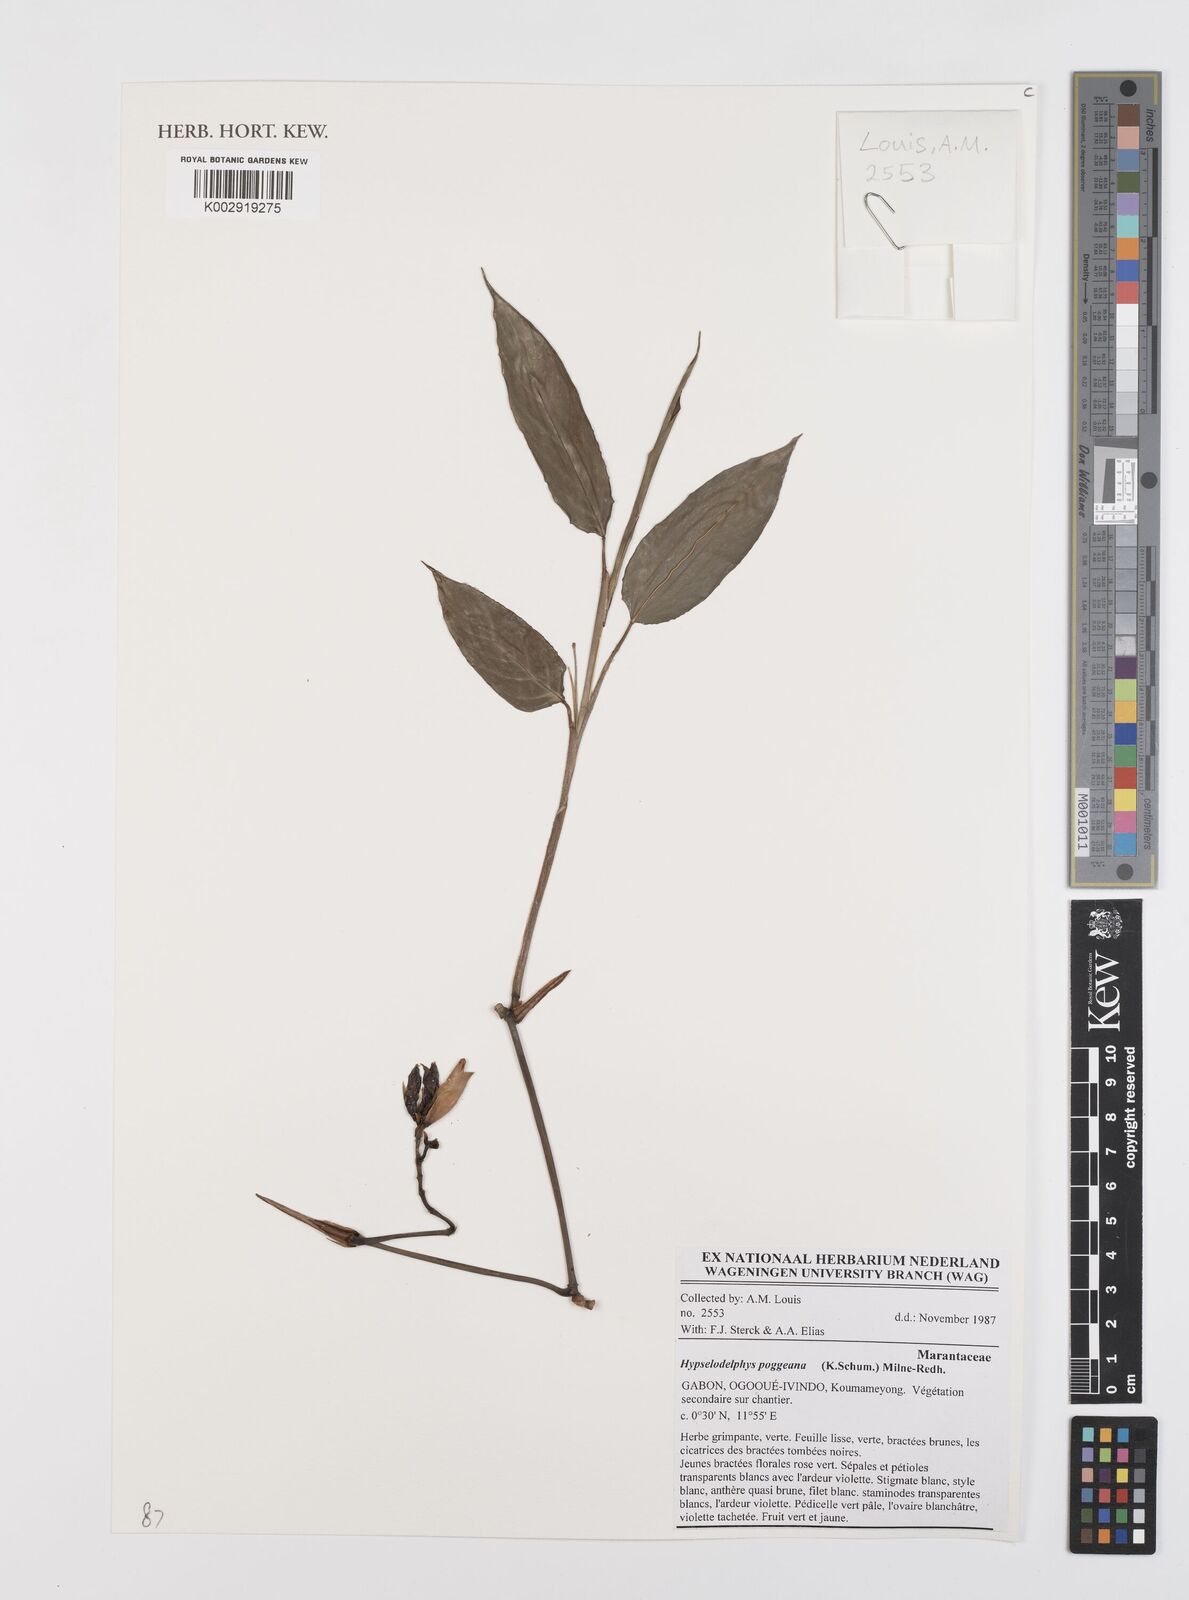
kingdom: Plantae
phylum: Tracheophyta
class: Liliopsida
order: Zingiberales
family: Marantaceae
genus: Hypselodelphys
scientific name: Hypselodelphys poggeana
